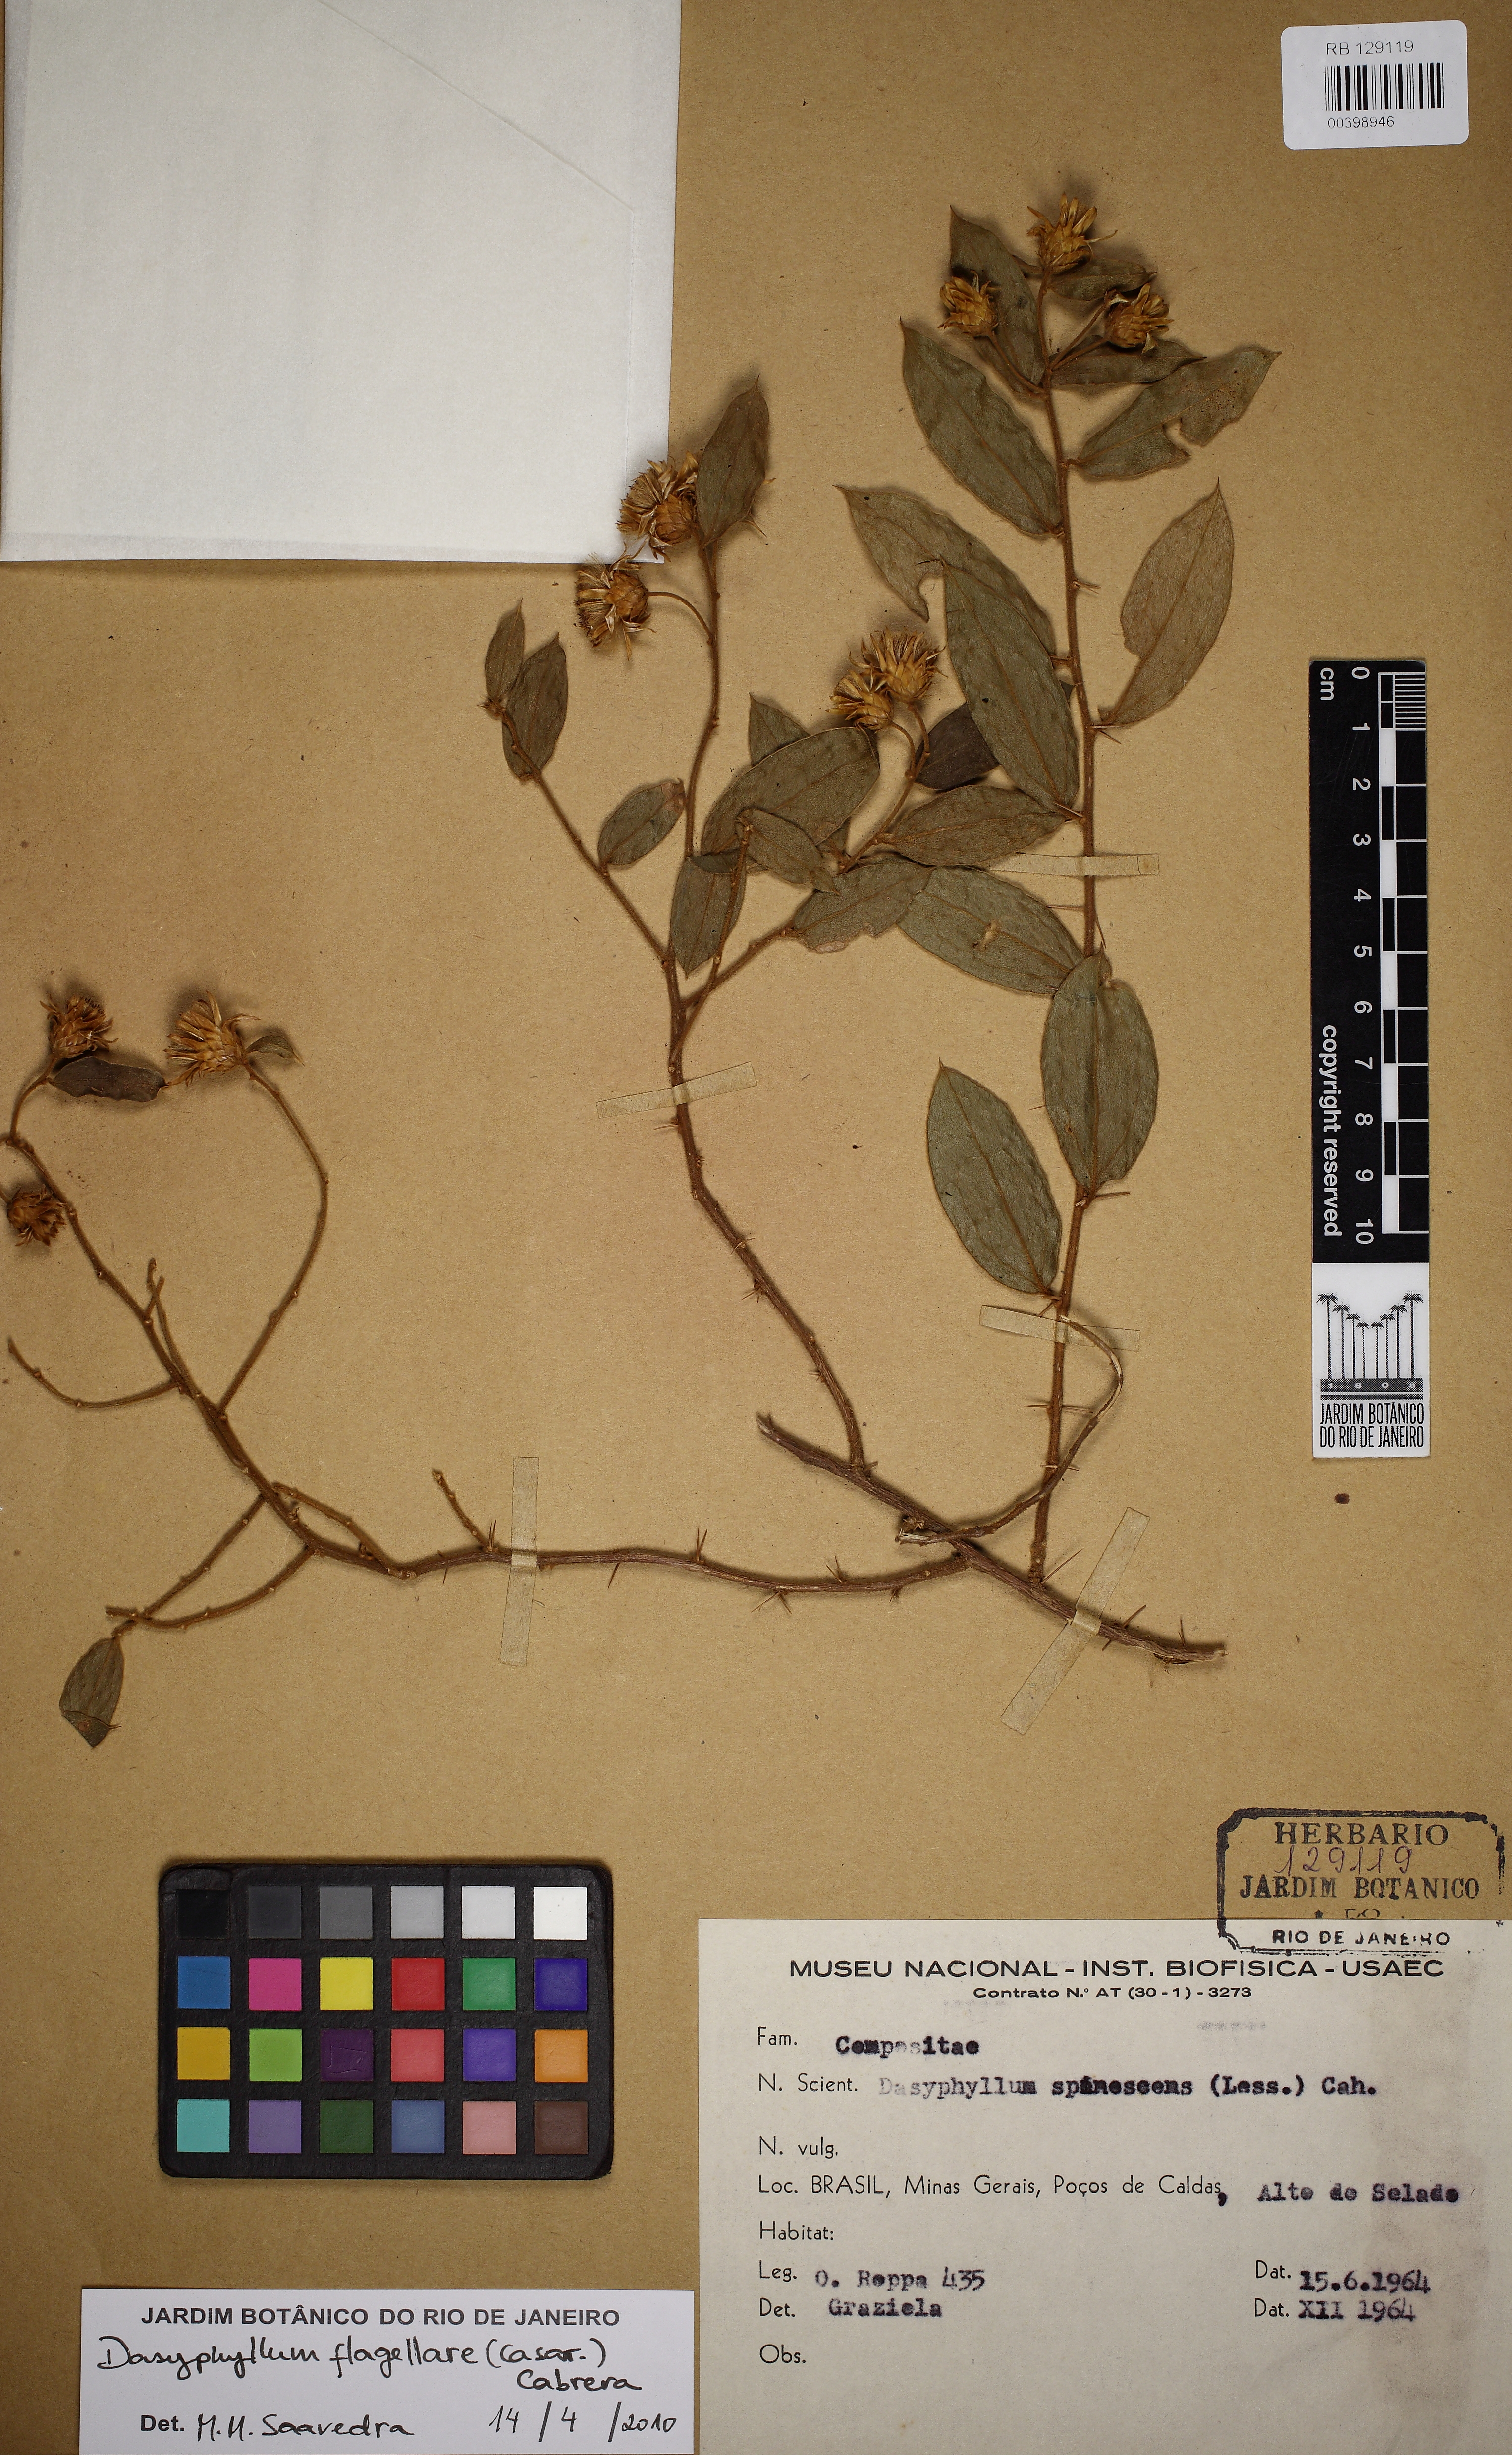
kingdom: Plantae
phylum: Tracheophyta
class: Magnoliopsida
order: Asterales
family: Asteraceae
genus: Dasyphyllum
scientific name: Dasyphyllum flagellare
